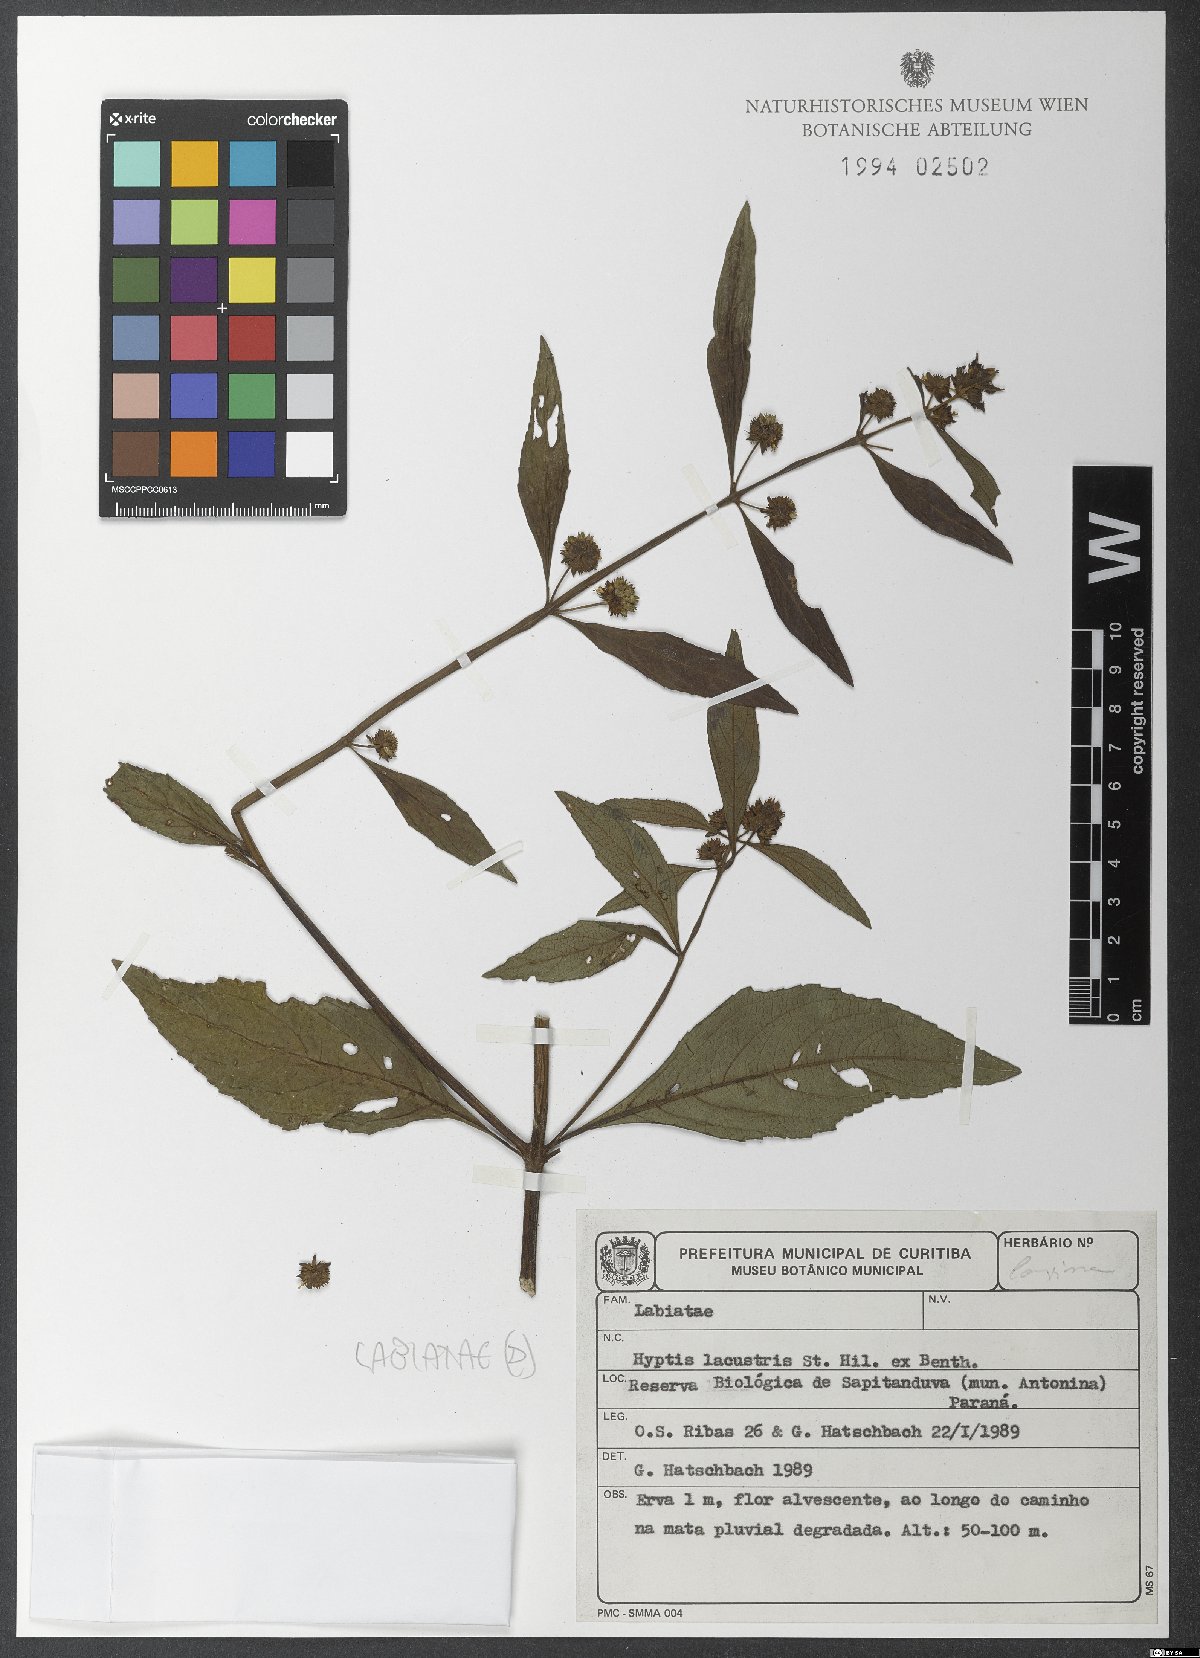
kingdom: Plantae
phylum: Tracheophyta
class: Magnoliopsida
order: Lamiales
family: Lamiaceae
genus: Hyptis
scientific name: Hyptis lacustris
